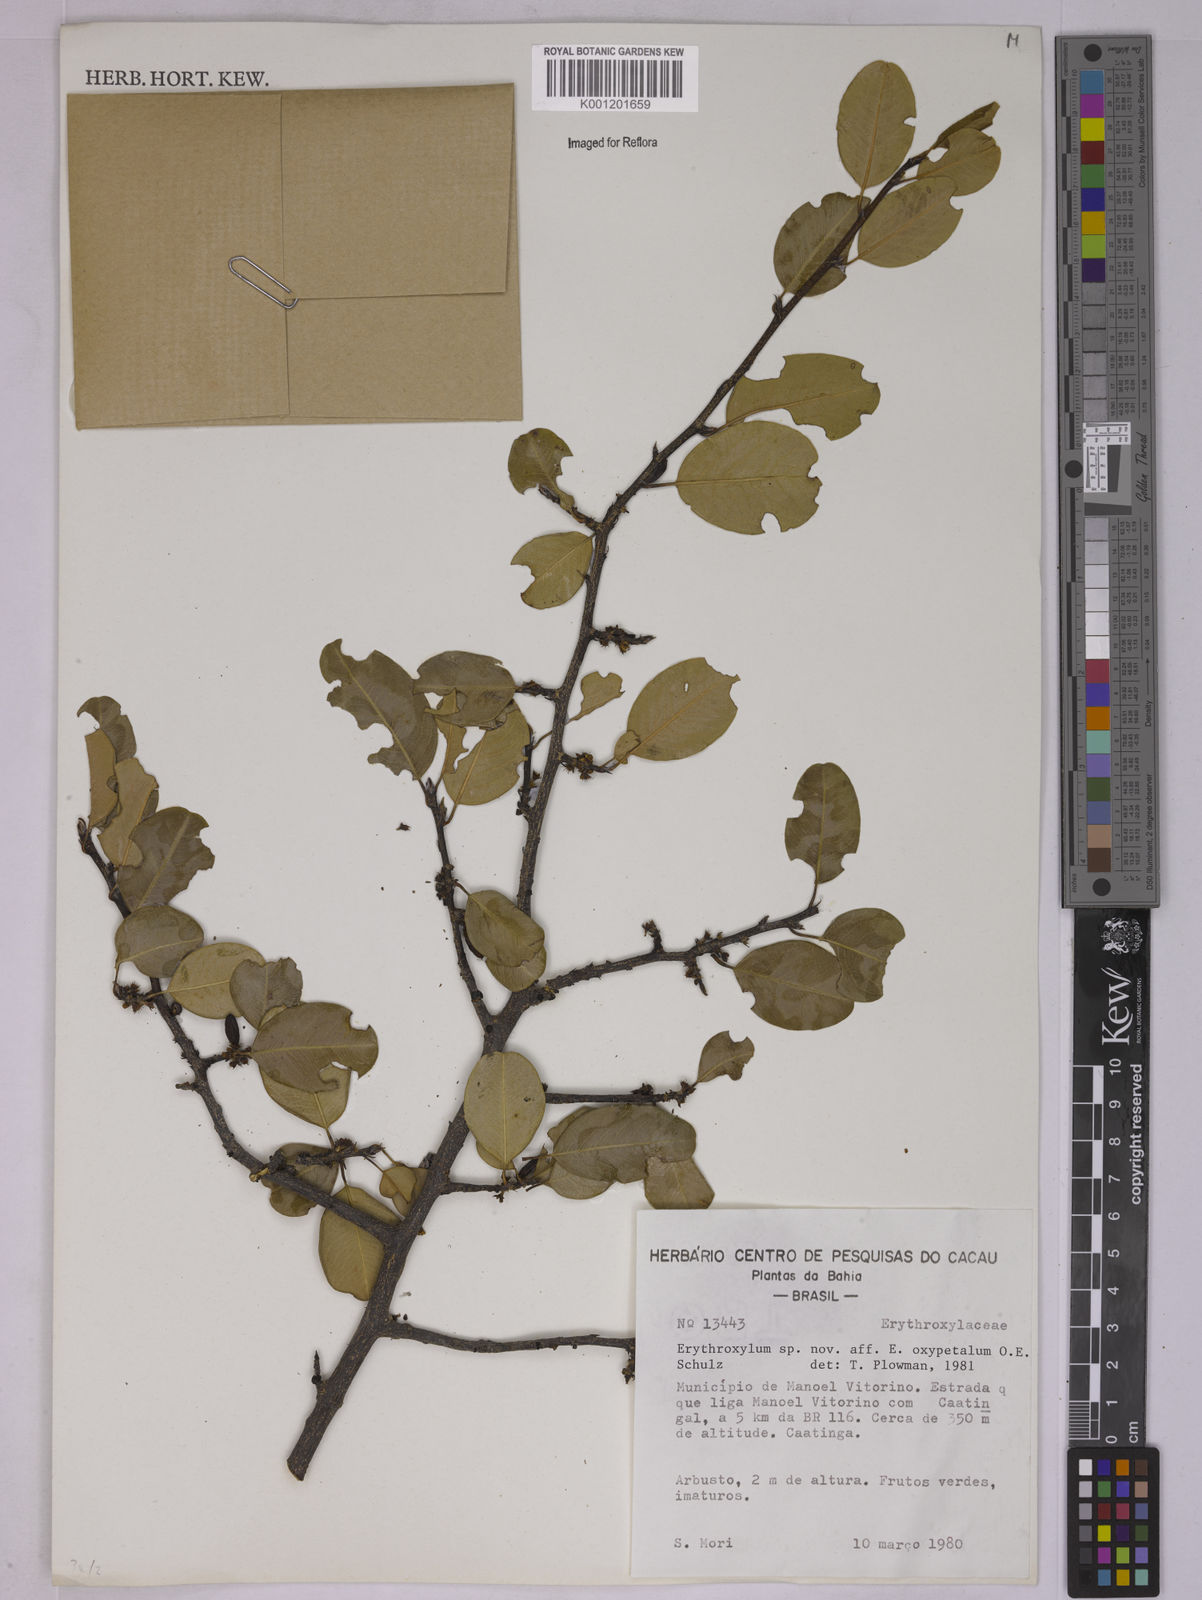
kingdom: Plantae
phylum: Tracheophyta
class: Magnoliopsida
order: Malpighiales
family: Erythroxylaceae
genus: Erythroxylum
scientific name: Erythroxylum
